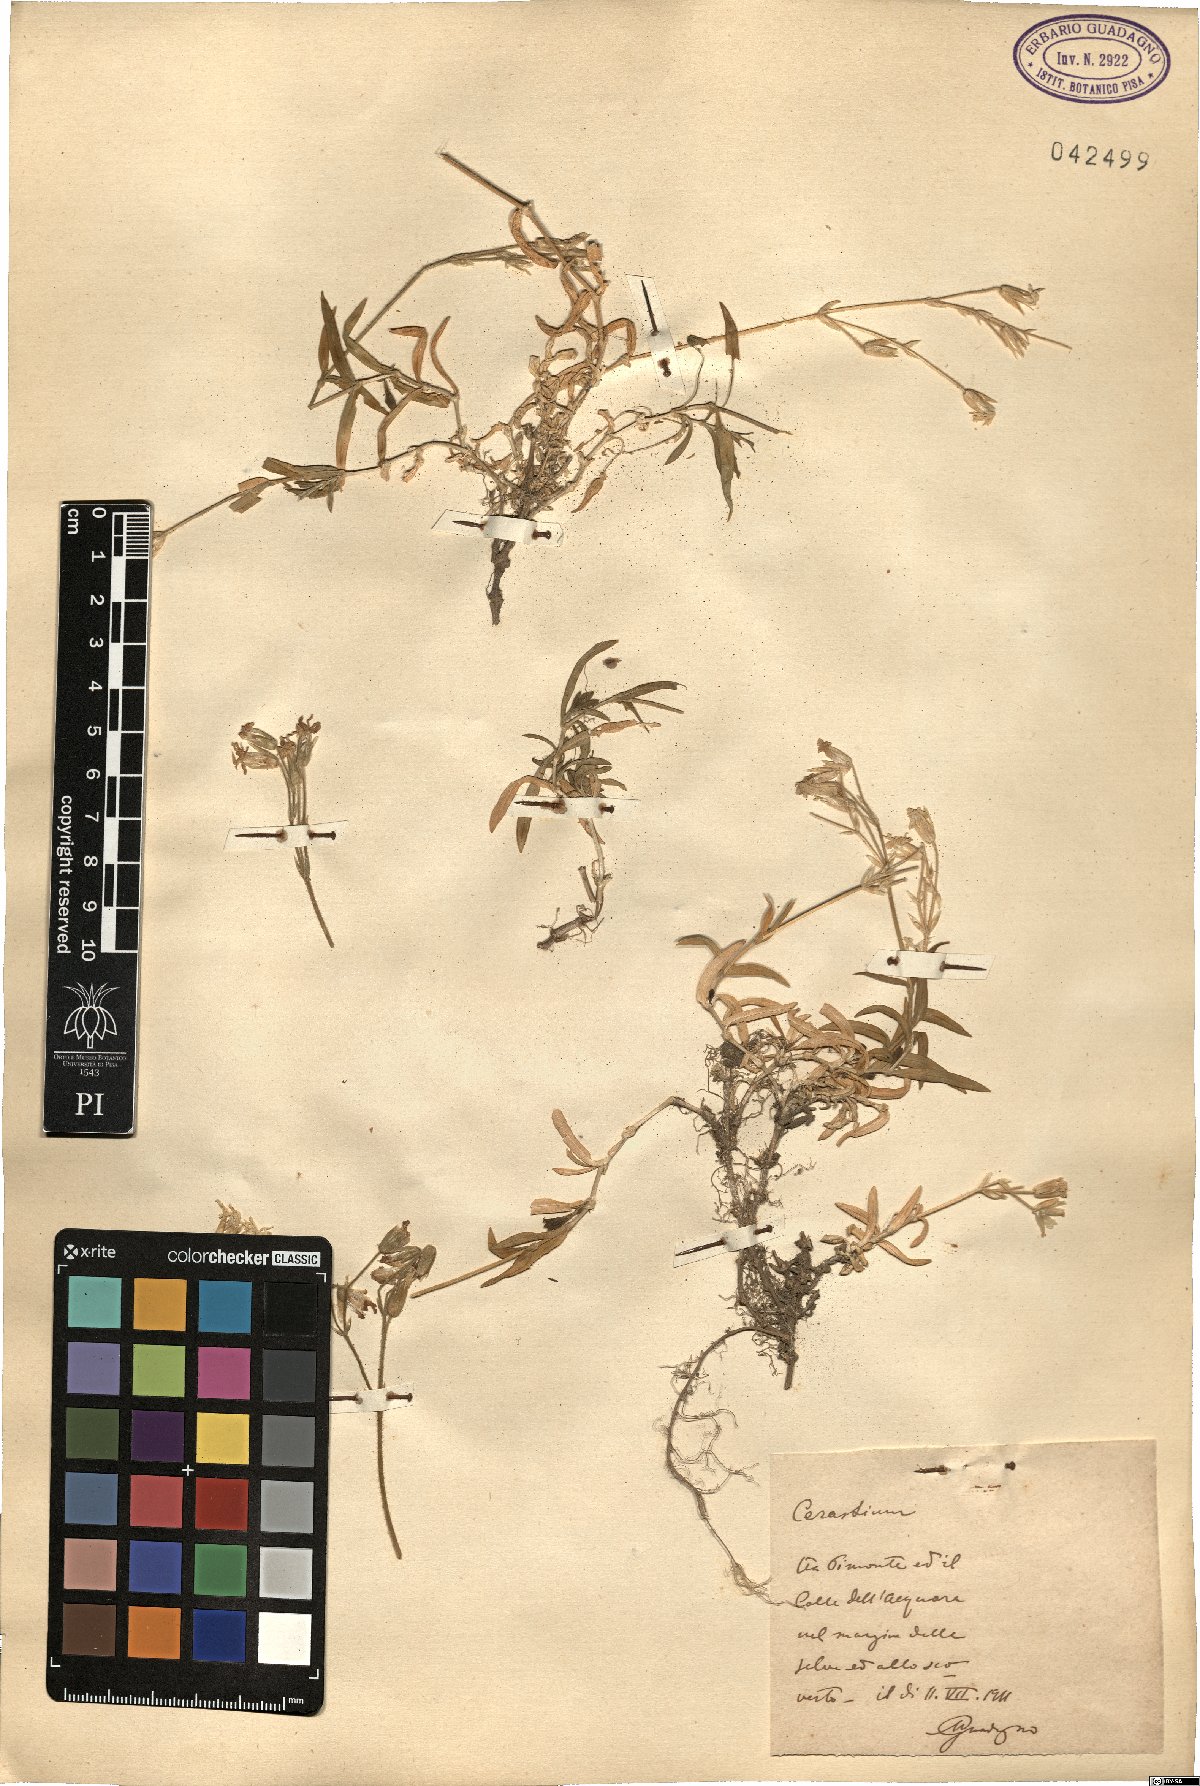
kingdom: Plantae
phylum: Tracheophyta
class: Magnoliopsida
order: Caryophyllales
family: Caryophyllaceae
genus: Cerastium
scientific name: Cerastium
